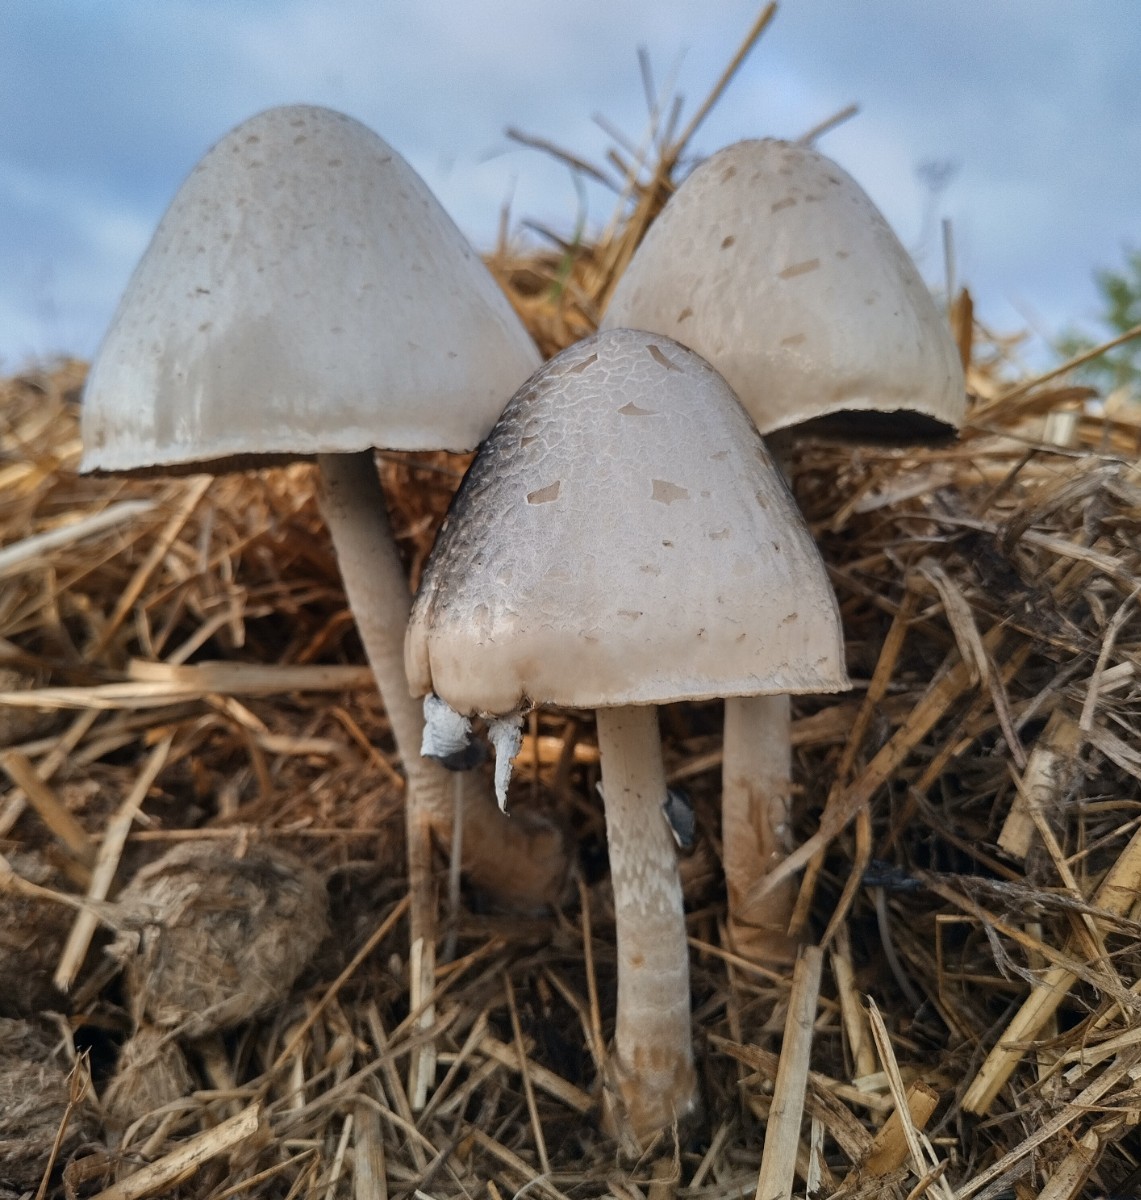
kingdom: Fungi
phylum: Basidiomycota
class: Agaricomycetes
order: Agaricales
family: Bolbitiaceae
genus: Panaeolus
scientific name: Panaeolus semiovatus
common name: ring-glanshat
